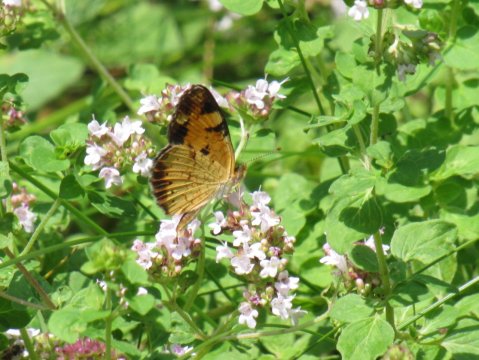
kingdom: Animalia
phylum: Arthropoda
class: Insecta
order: Lepidoptera
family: Nymphalidae
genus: Phyciodes
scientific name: Phyciodes
